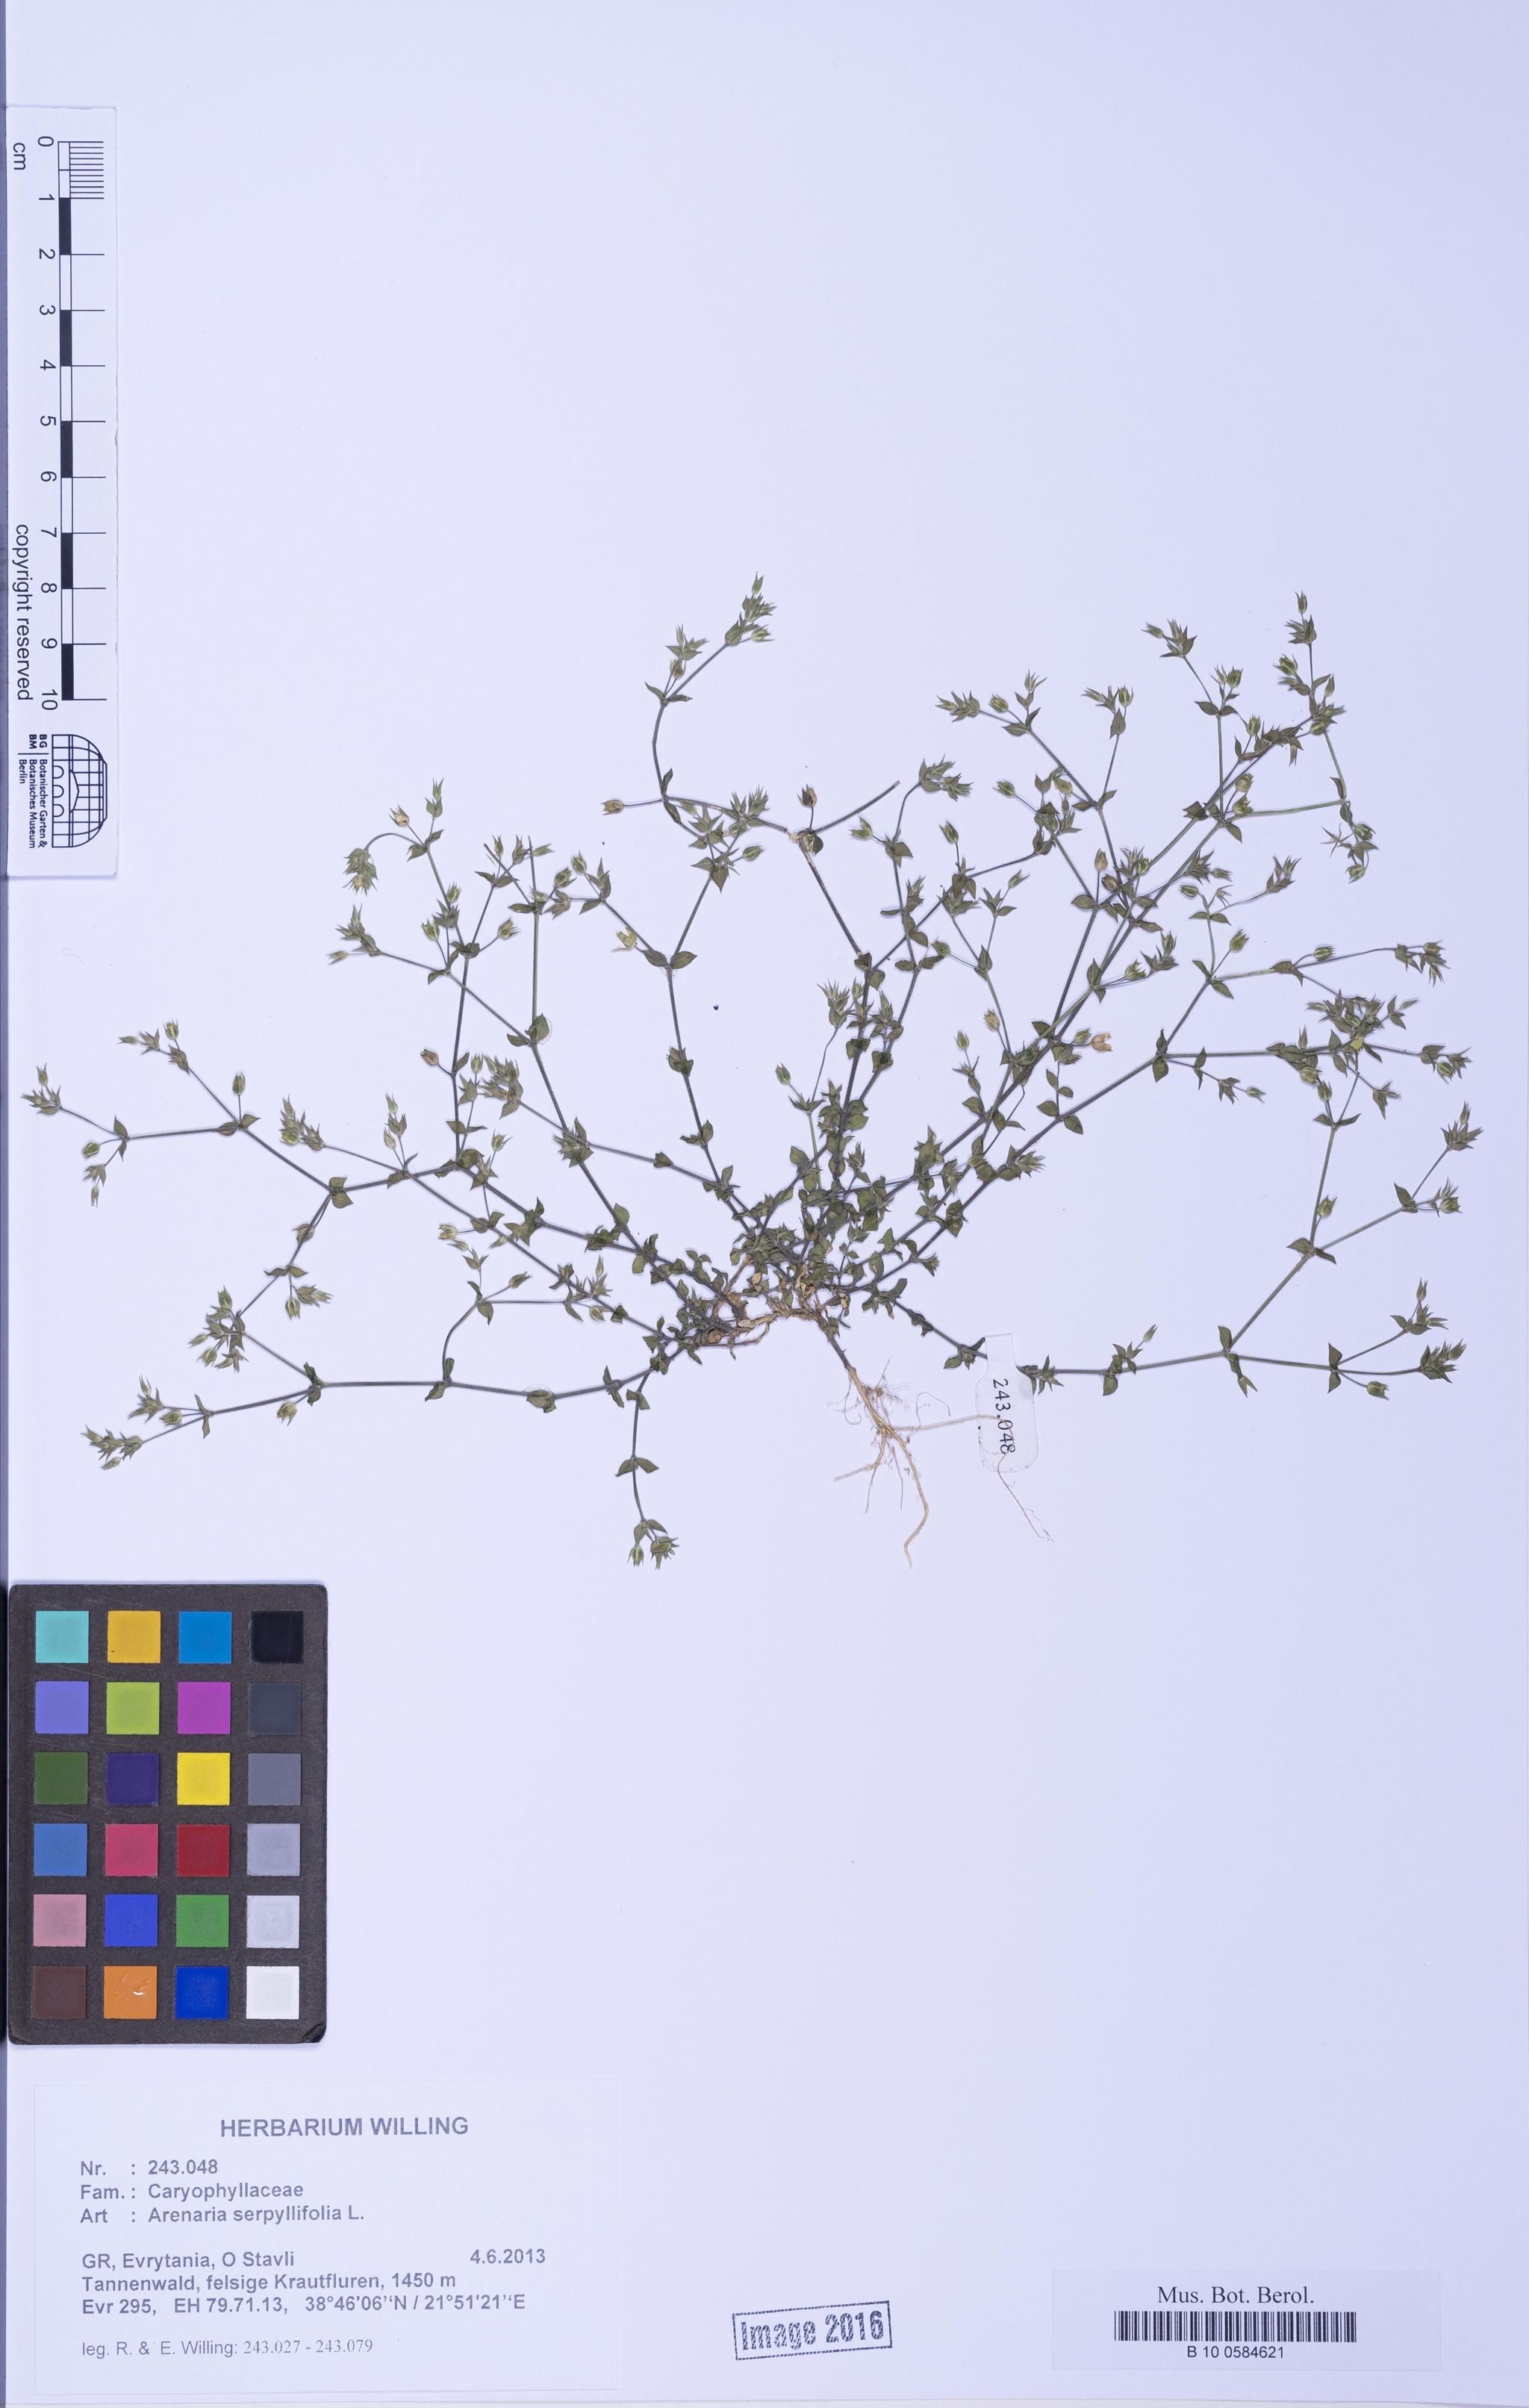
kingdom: Plantae
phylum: Tracheophyta
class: Magnoliopsida
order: Caryophyllales
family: Caryophyllaceae
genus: Arenaria
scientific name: Arenaria serpyllifolia
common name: Thyme-leaved sandwort
